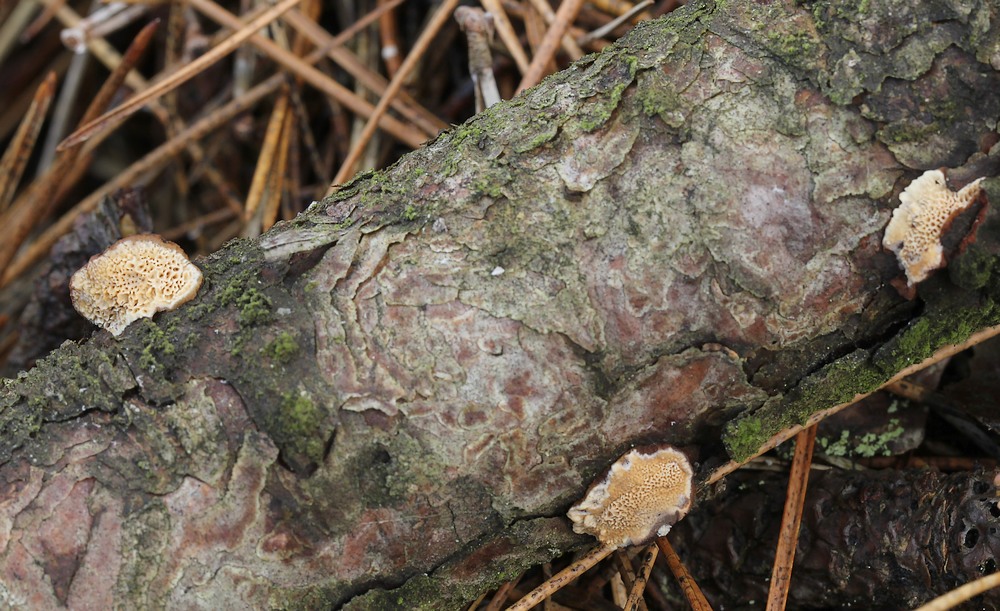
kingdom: Fungi
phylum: Basidiomycota
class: Agaricomycetes
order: Polyporales
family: Ischnodermataceae
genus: Ischnoderma
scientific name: Ischnoderma benzoinum
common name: gran-tjæreporesvamp
